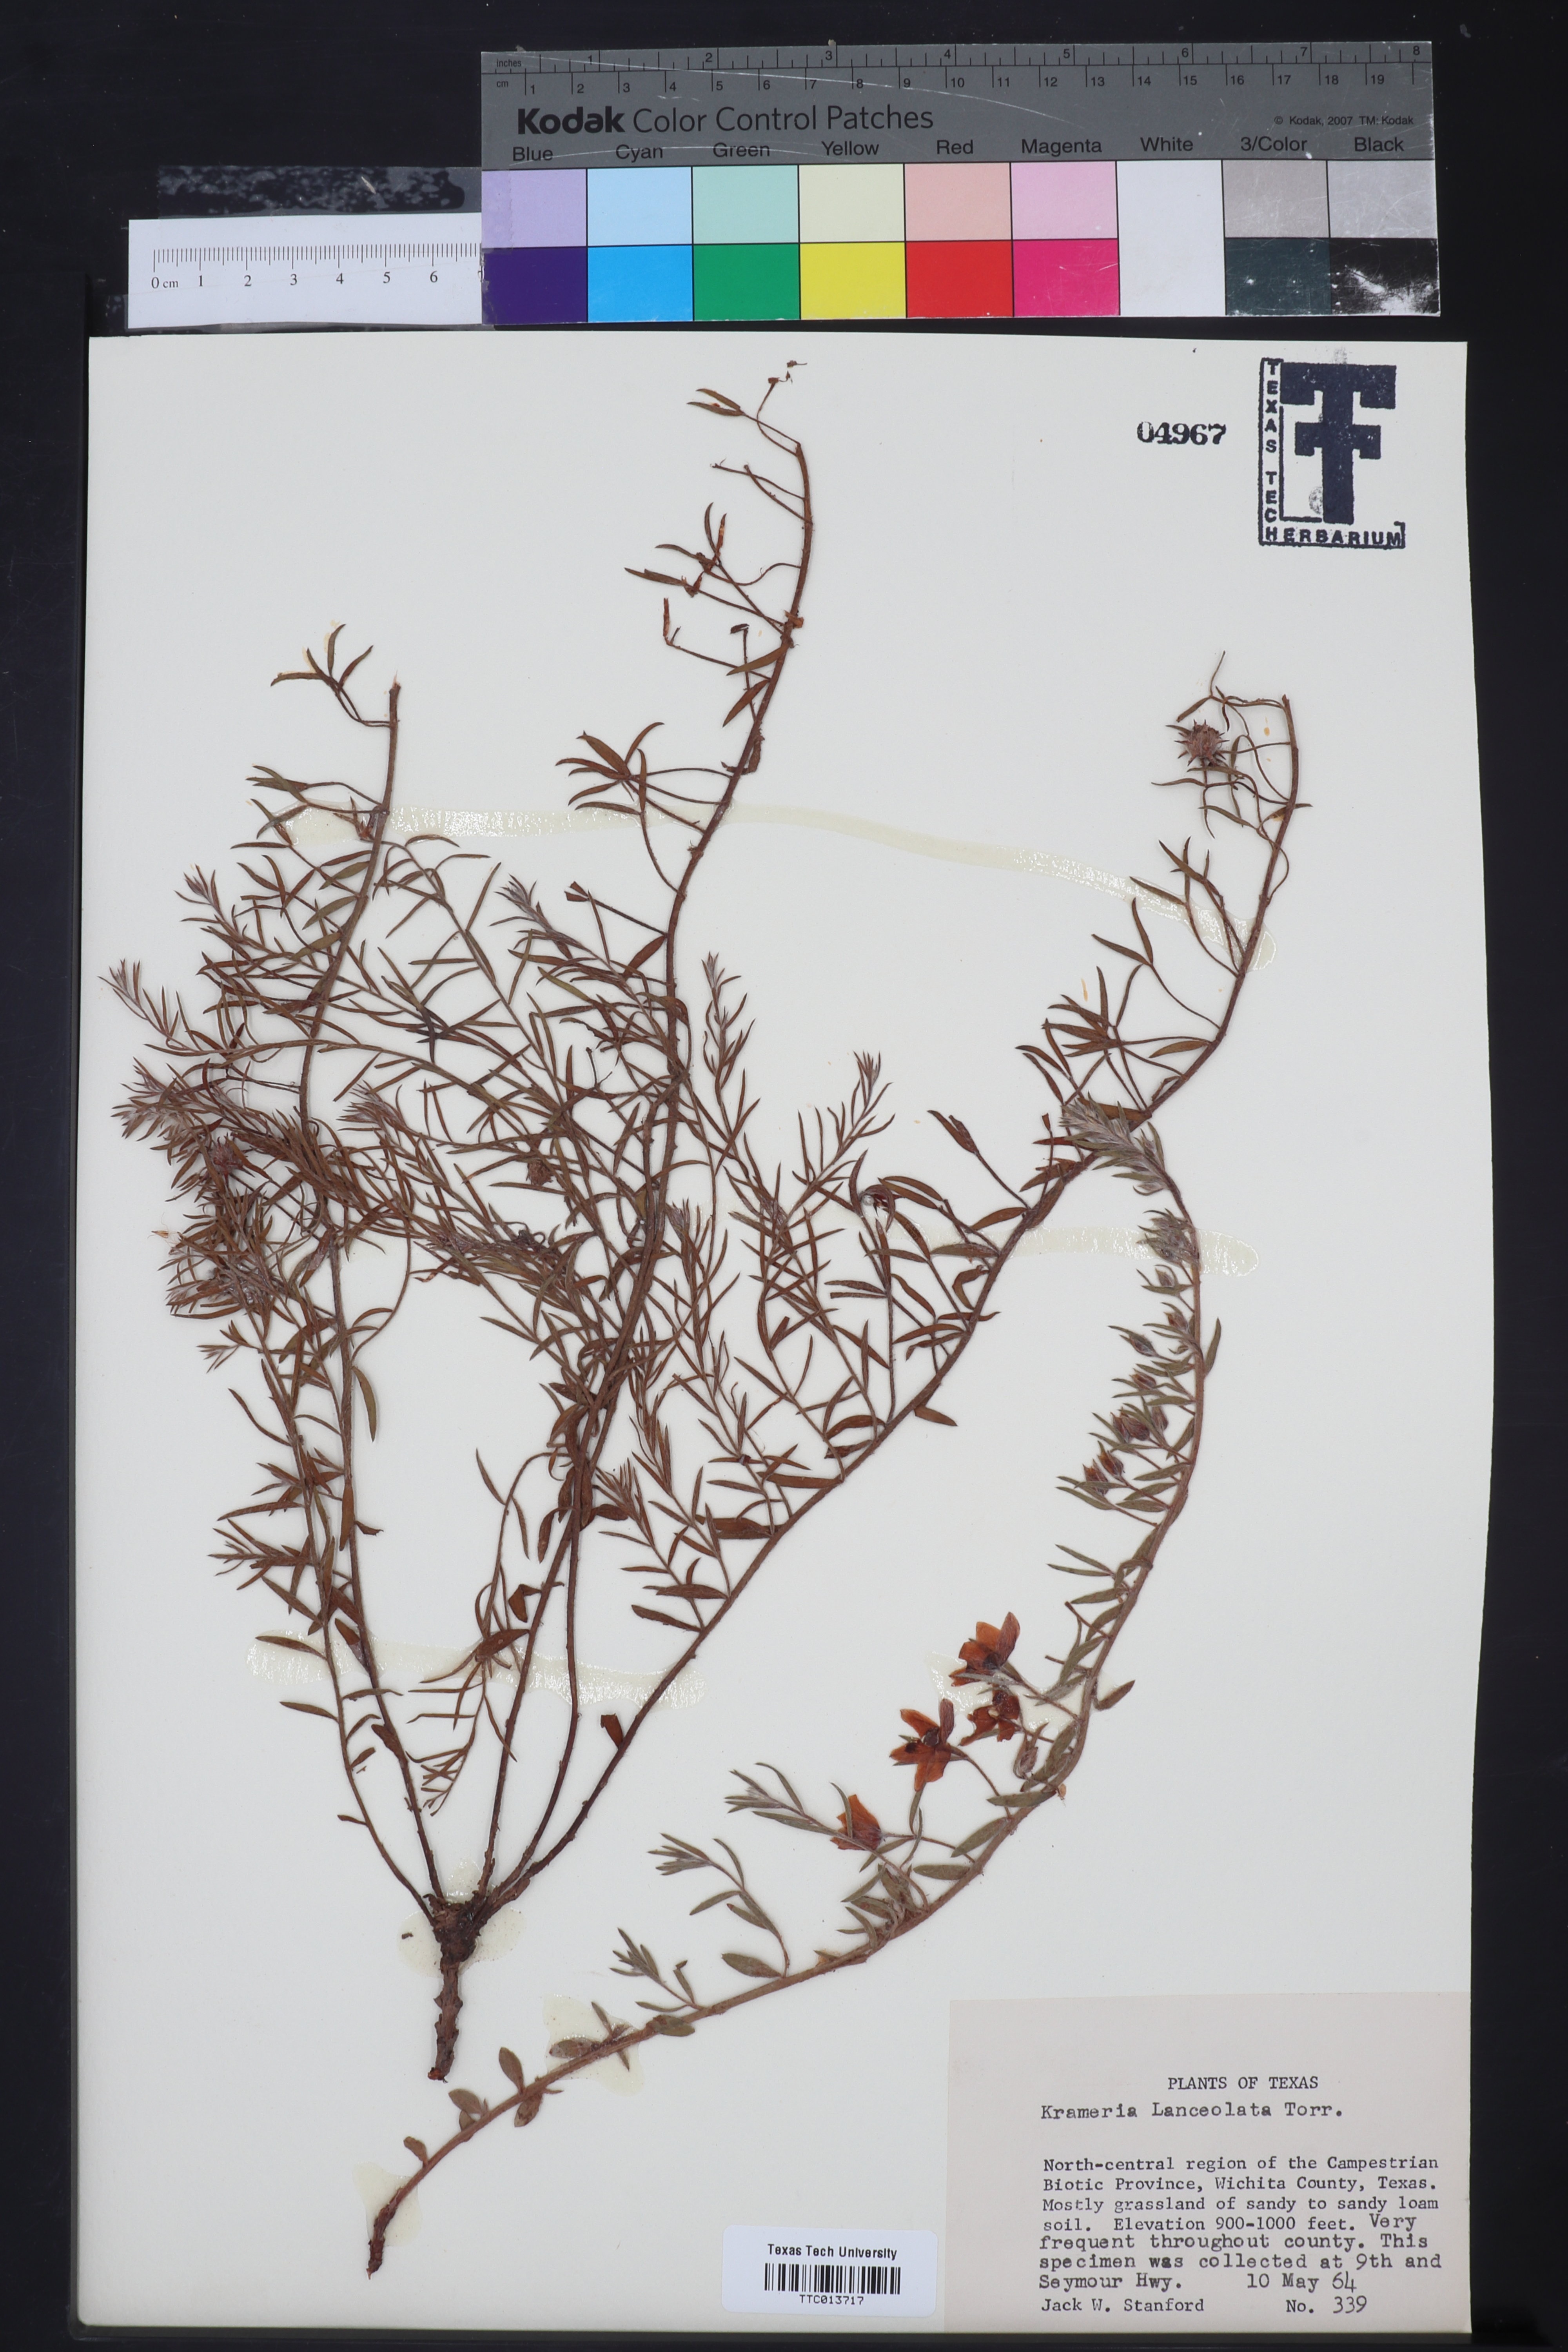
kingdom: Plantae
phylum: Tracheophyta
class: Magnoliopsida
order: Zygophyllales
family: Krameriaceae
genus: Krameria
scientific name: Krameria lanceolata
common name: Ratany
